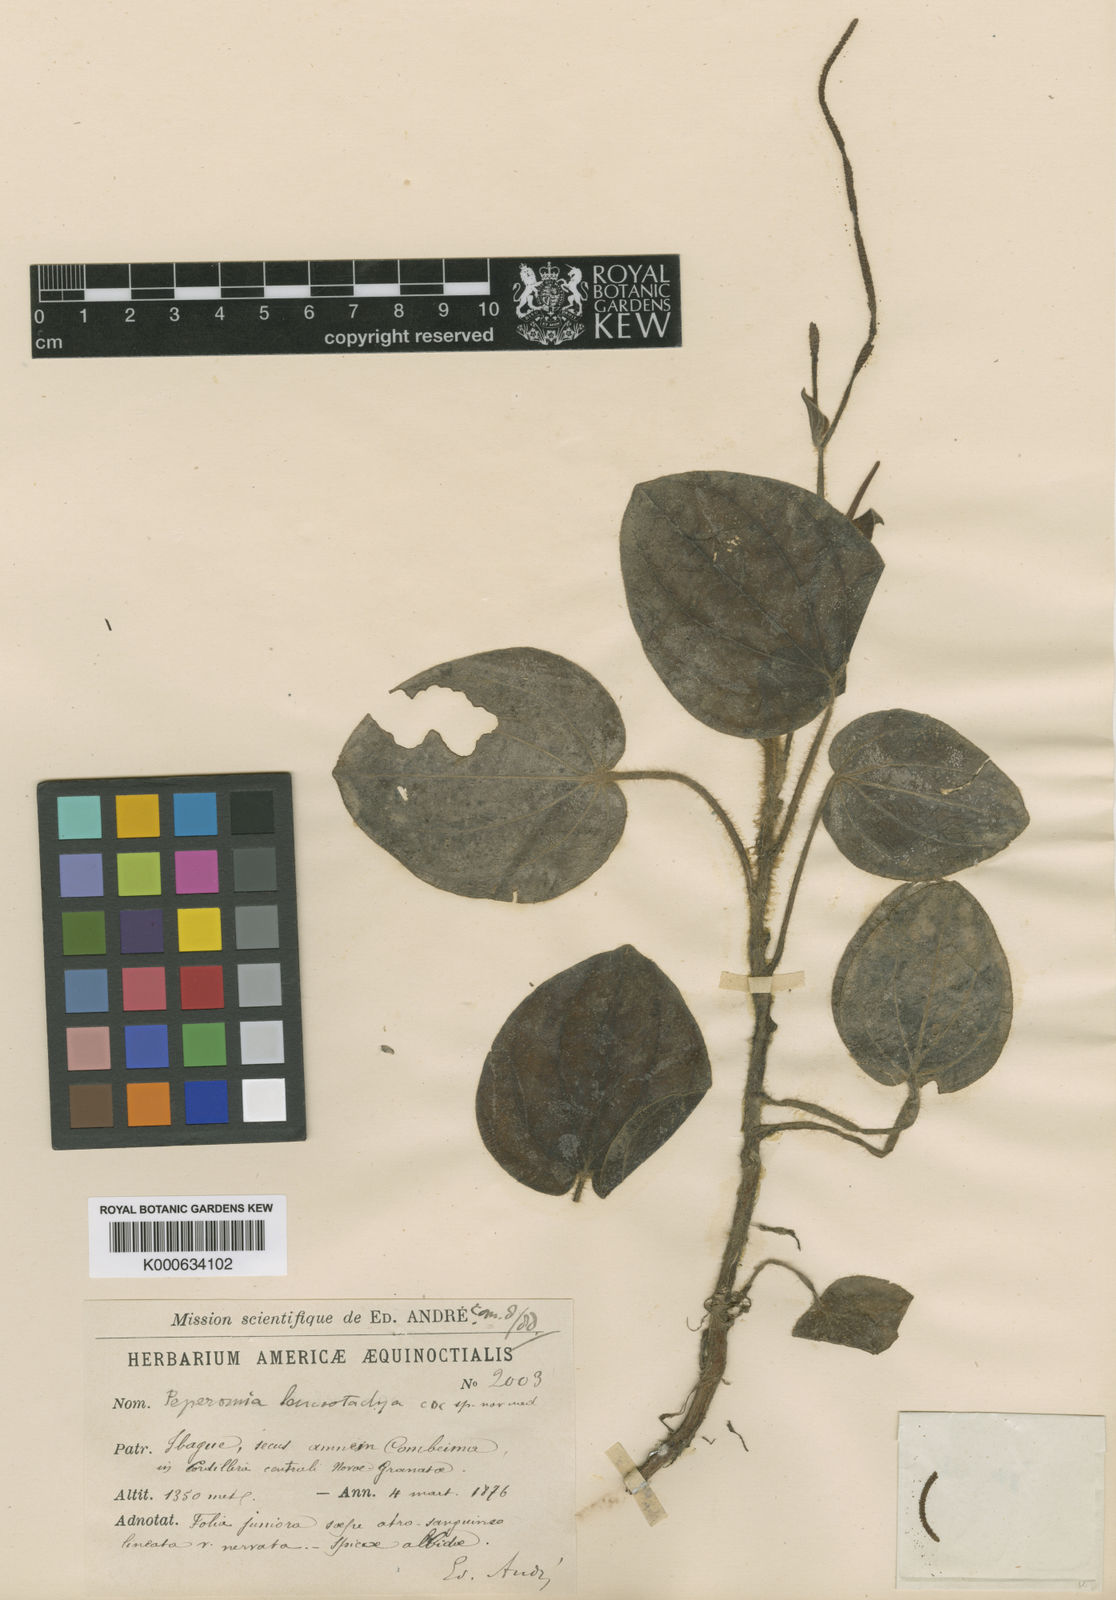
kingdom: Plantae
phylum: Tracheophyta
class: Magnoliopsida
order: Piperales
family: Piperaceae
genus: Peperomia
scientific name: Peperomia leucostachya
